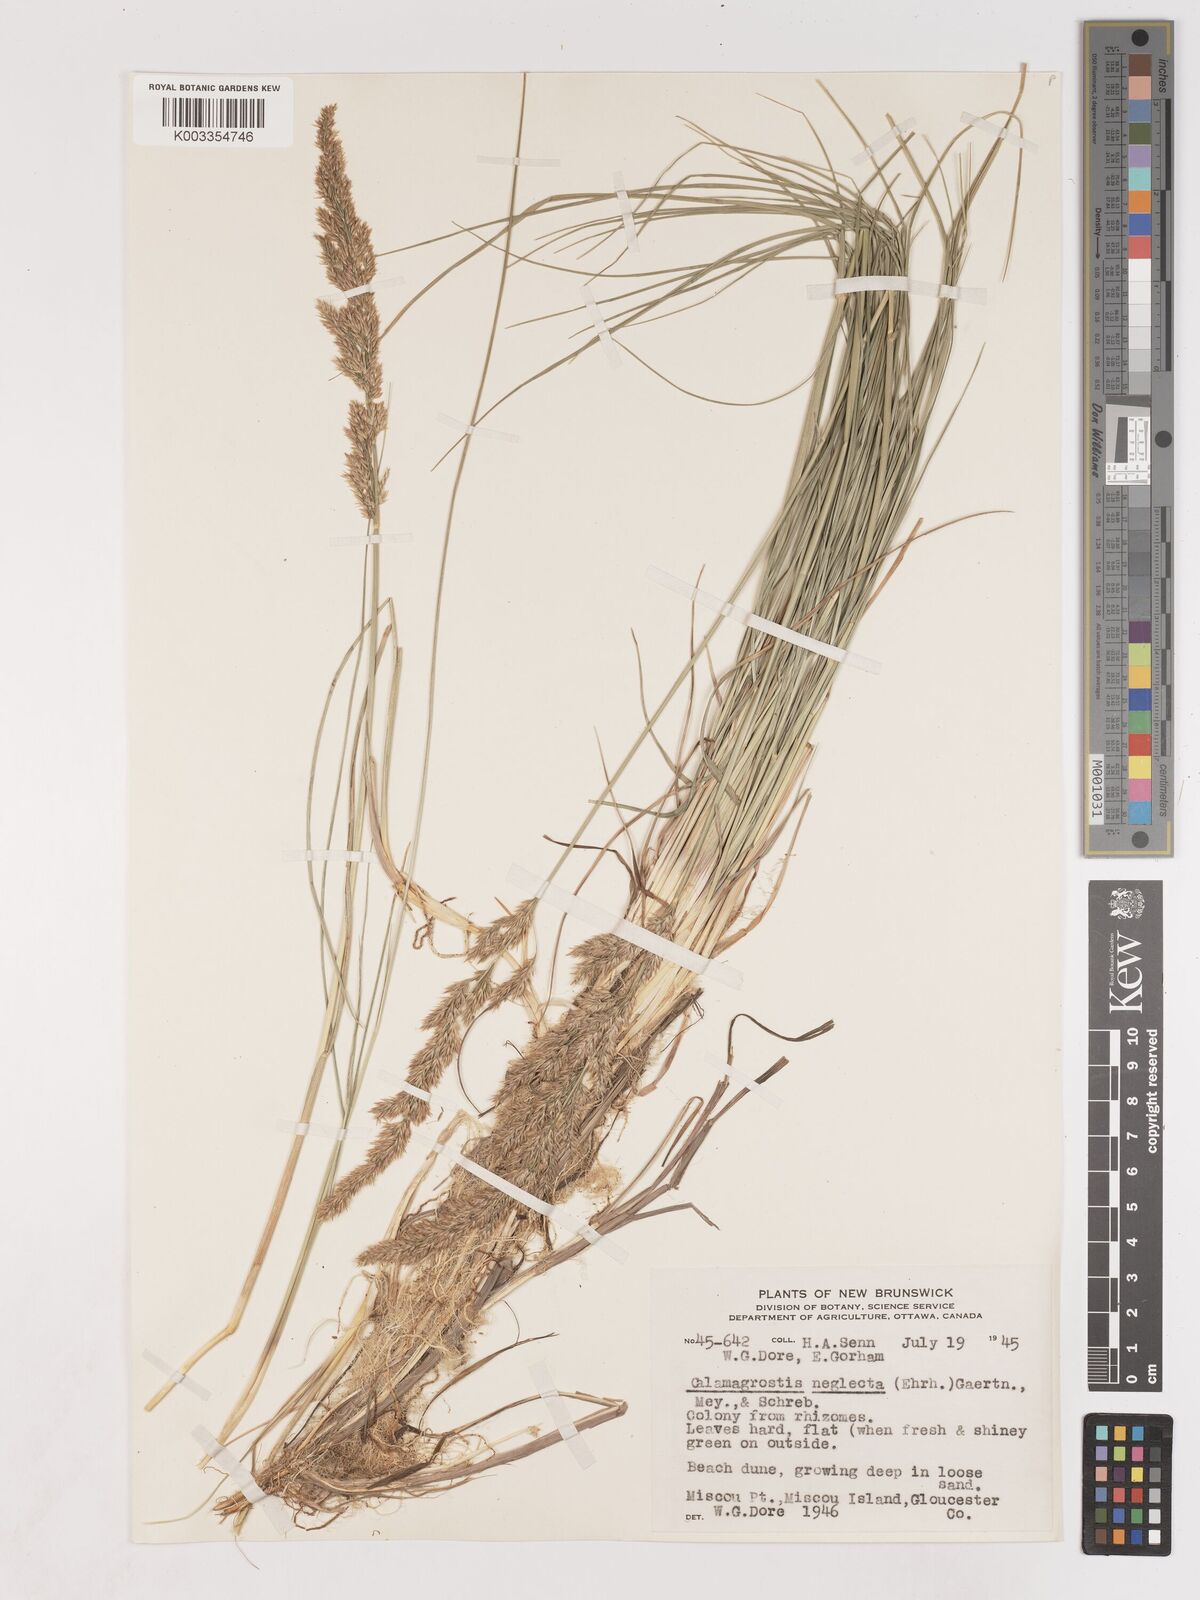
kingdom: Plantae
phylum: Tracheophyta
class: Liliopsida
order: Poales
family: Poaceae
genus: Cinnagrostis
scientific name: Cinnagrostis recta
